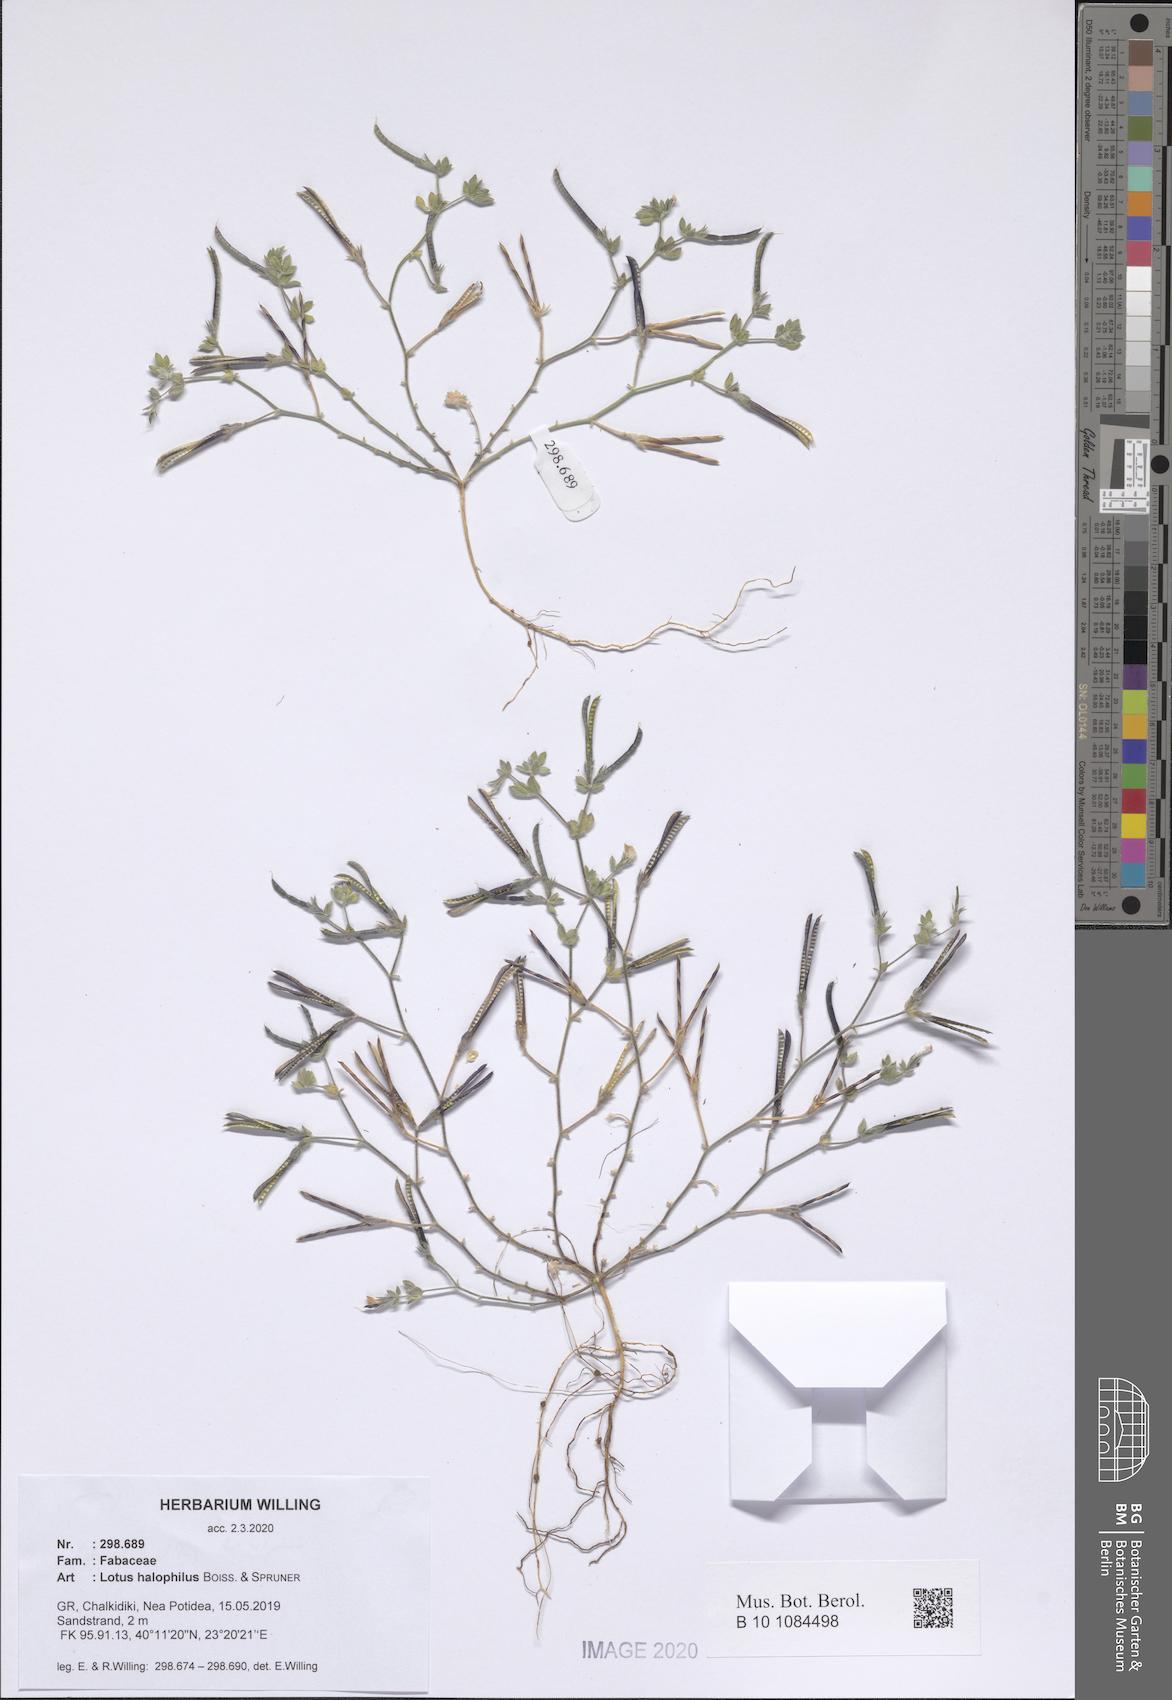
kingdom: Plantae
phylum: Tracheophyta
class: Magnoliopsida
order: Fabales
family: Fabaceae
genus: Lotus
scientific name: Lotus halophilus
